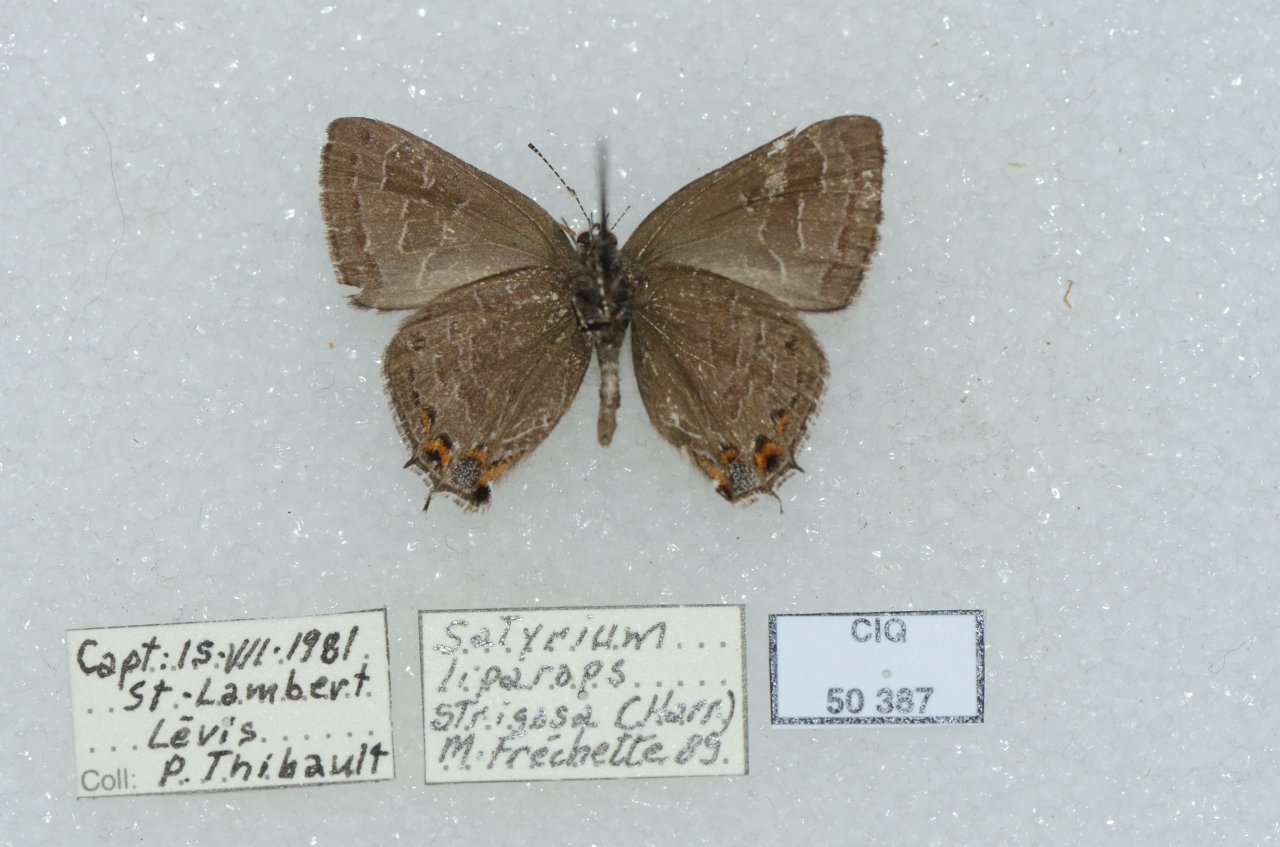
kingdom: Animalia
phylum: Arthropoda
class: Insecta
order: Lepidoptera
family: Lycaenidae
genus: Satyrium
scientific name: Satyrium liparops
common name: Striped Hairstreak
